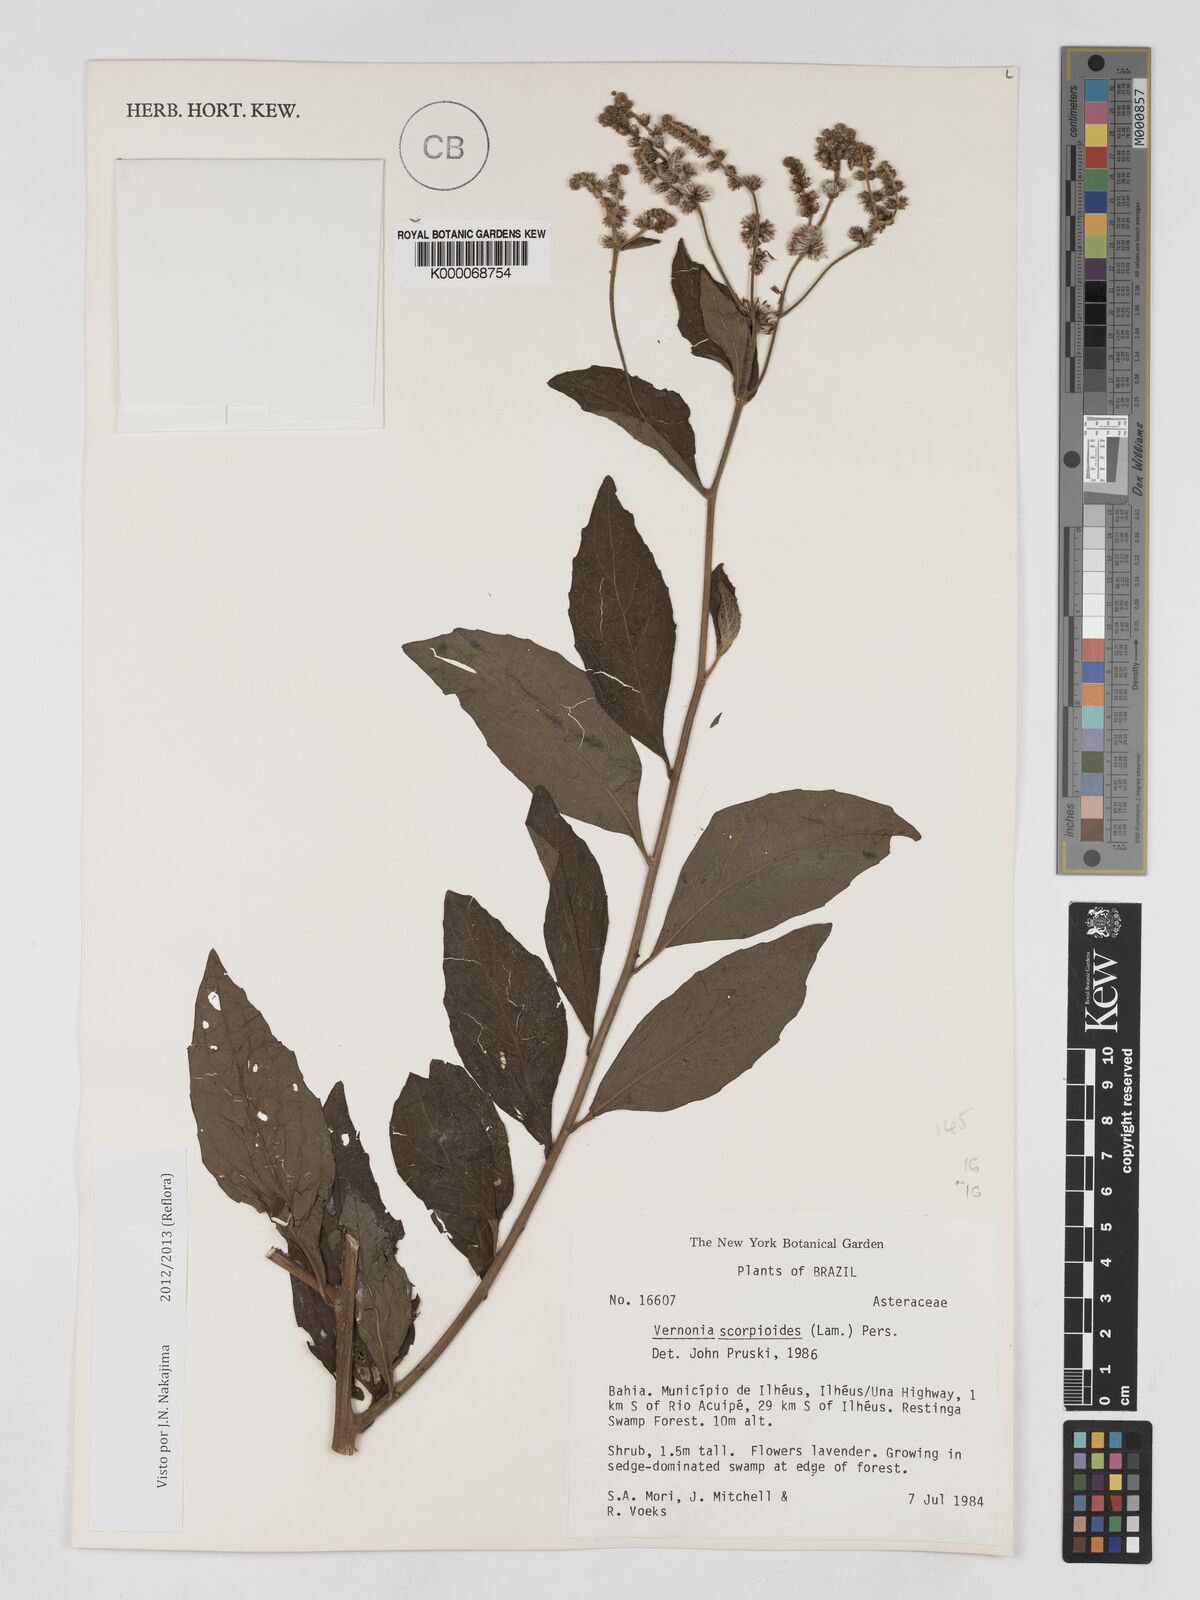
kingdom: Plantae
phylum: Tracheophyta
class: Magnoliopsida
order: Asterales
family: Asteraceae
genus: Cyrtocymura
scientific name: Cyrtocymura scorpioides
